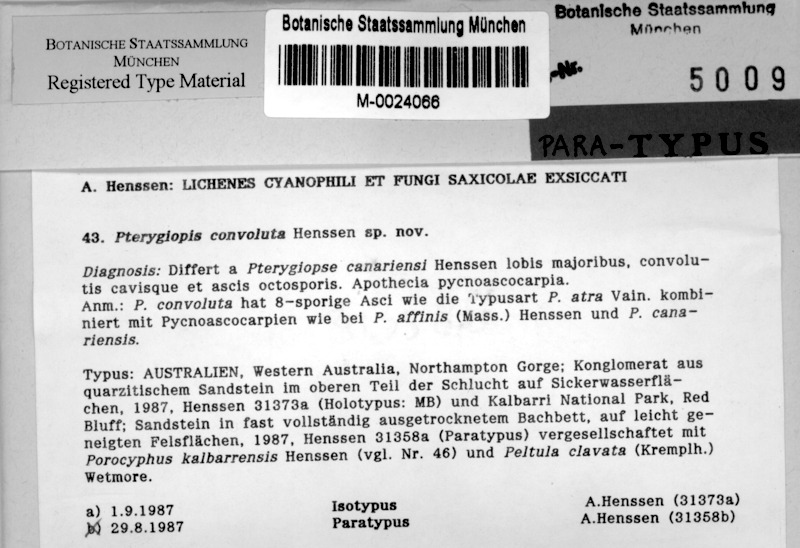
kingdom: Fungi
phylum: Ascomycota
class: Lichinomycetes
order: Lichinales
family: Lichinaceae
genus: Pterygiopsis
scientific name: Pterygiopsis convoluta
